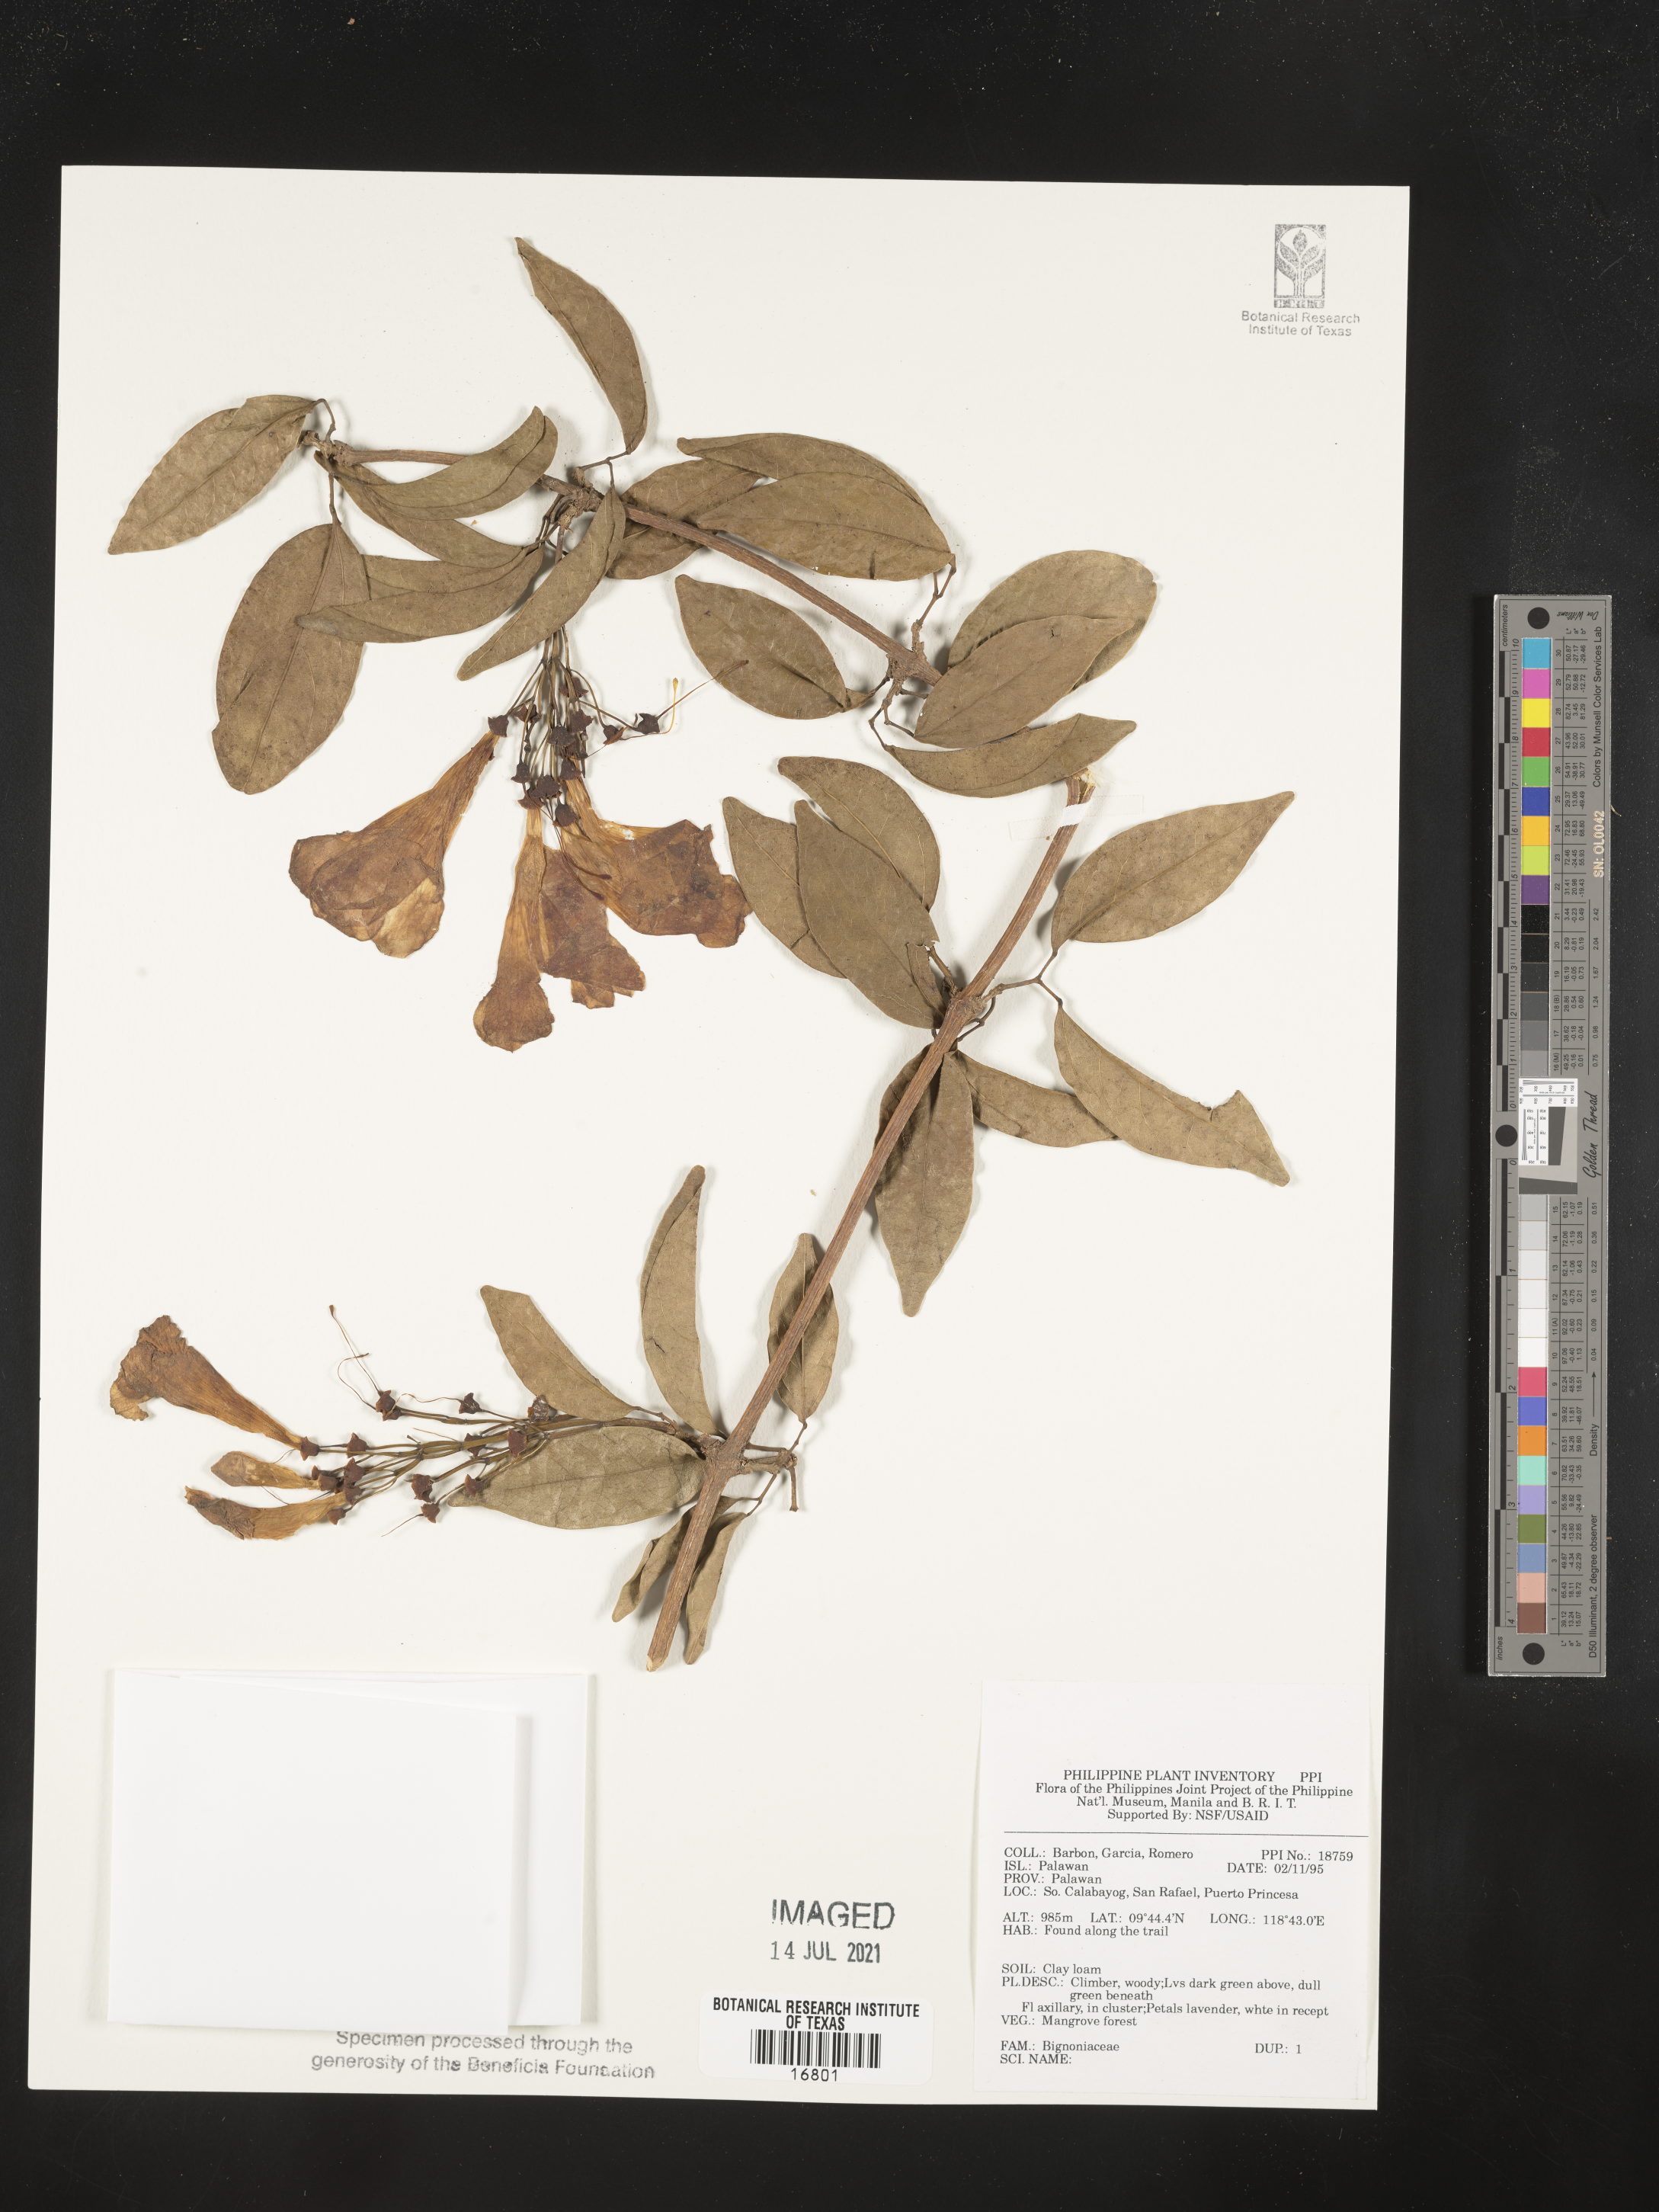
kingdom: Plantae
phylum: Tracheophyta
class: Magnoliopsida
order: Lamiales
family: Bignoniaceae
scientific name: Bignoniaceae
